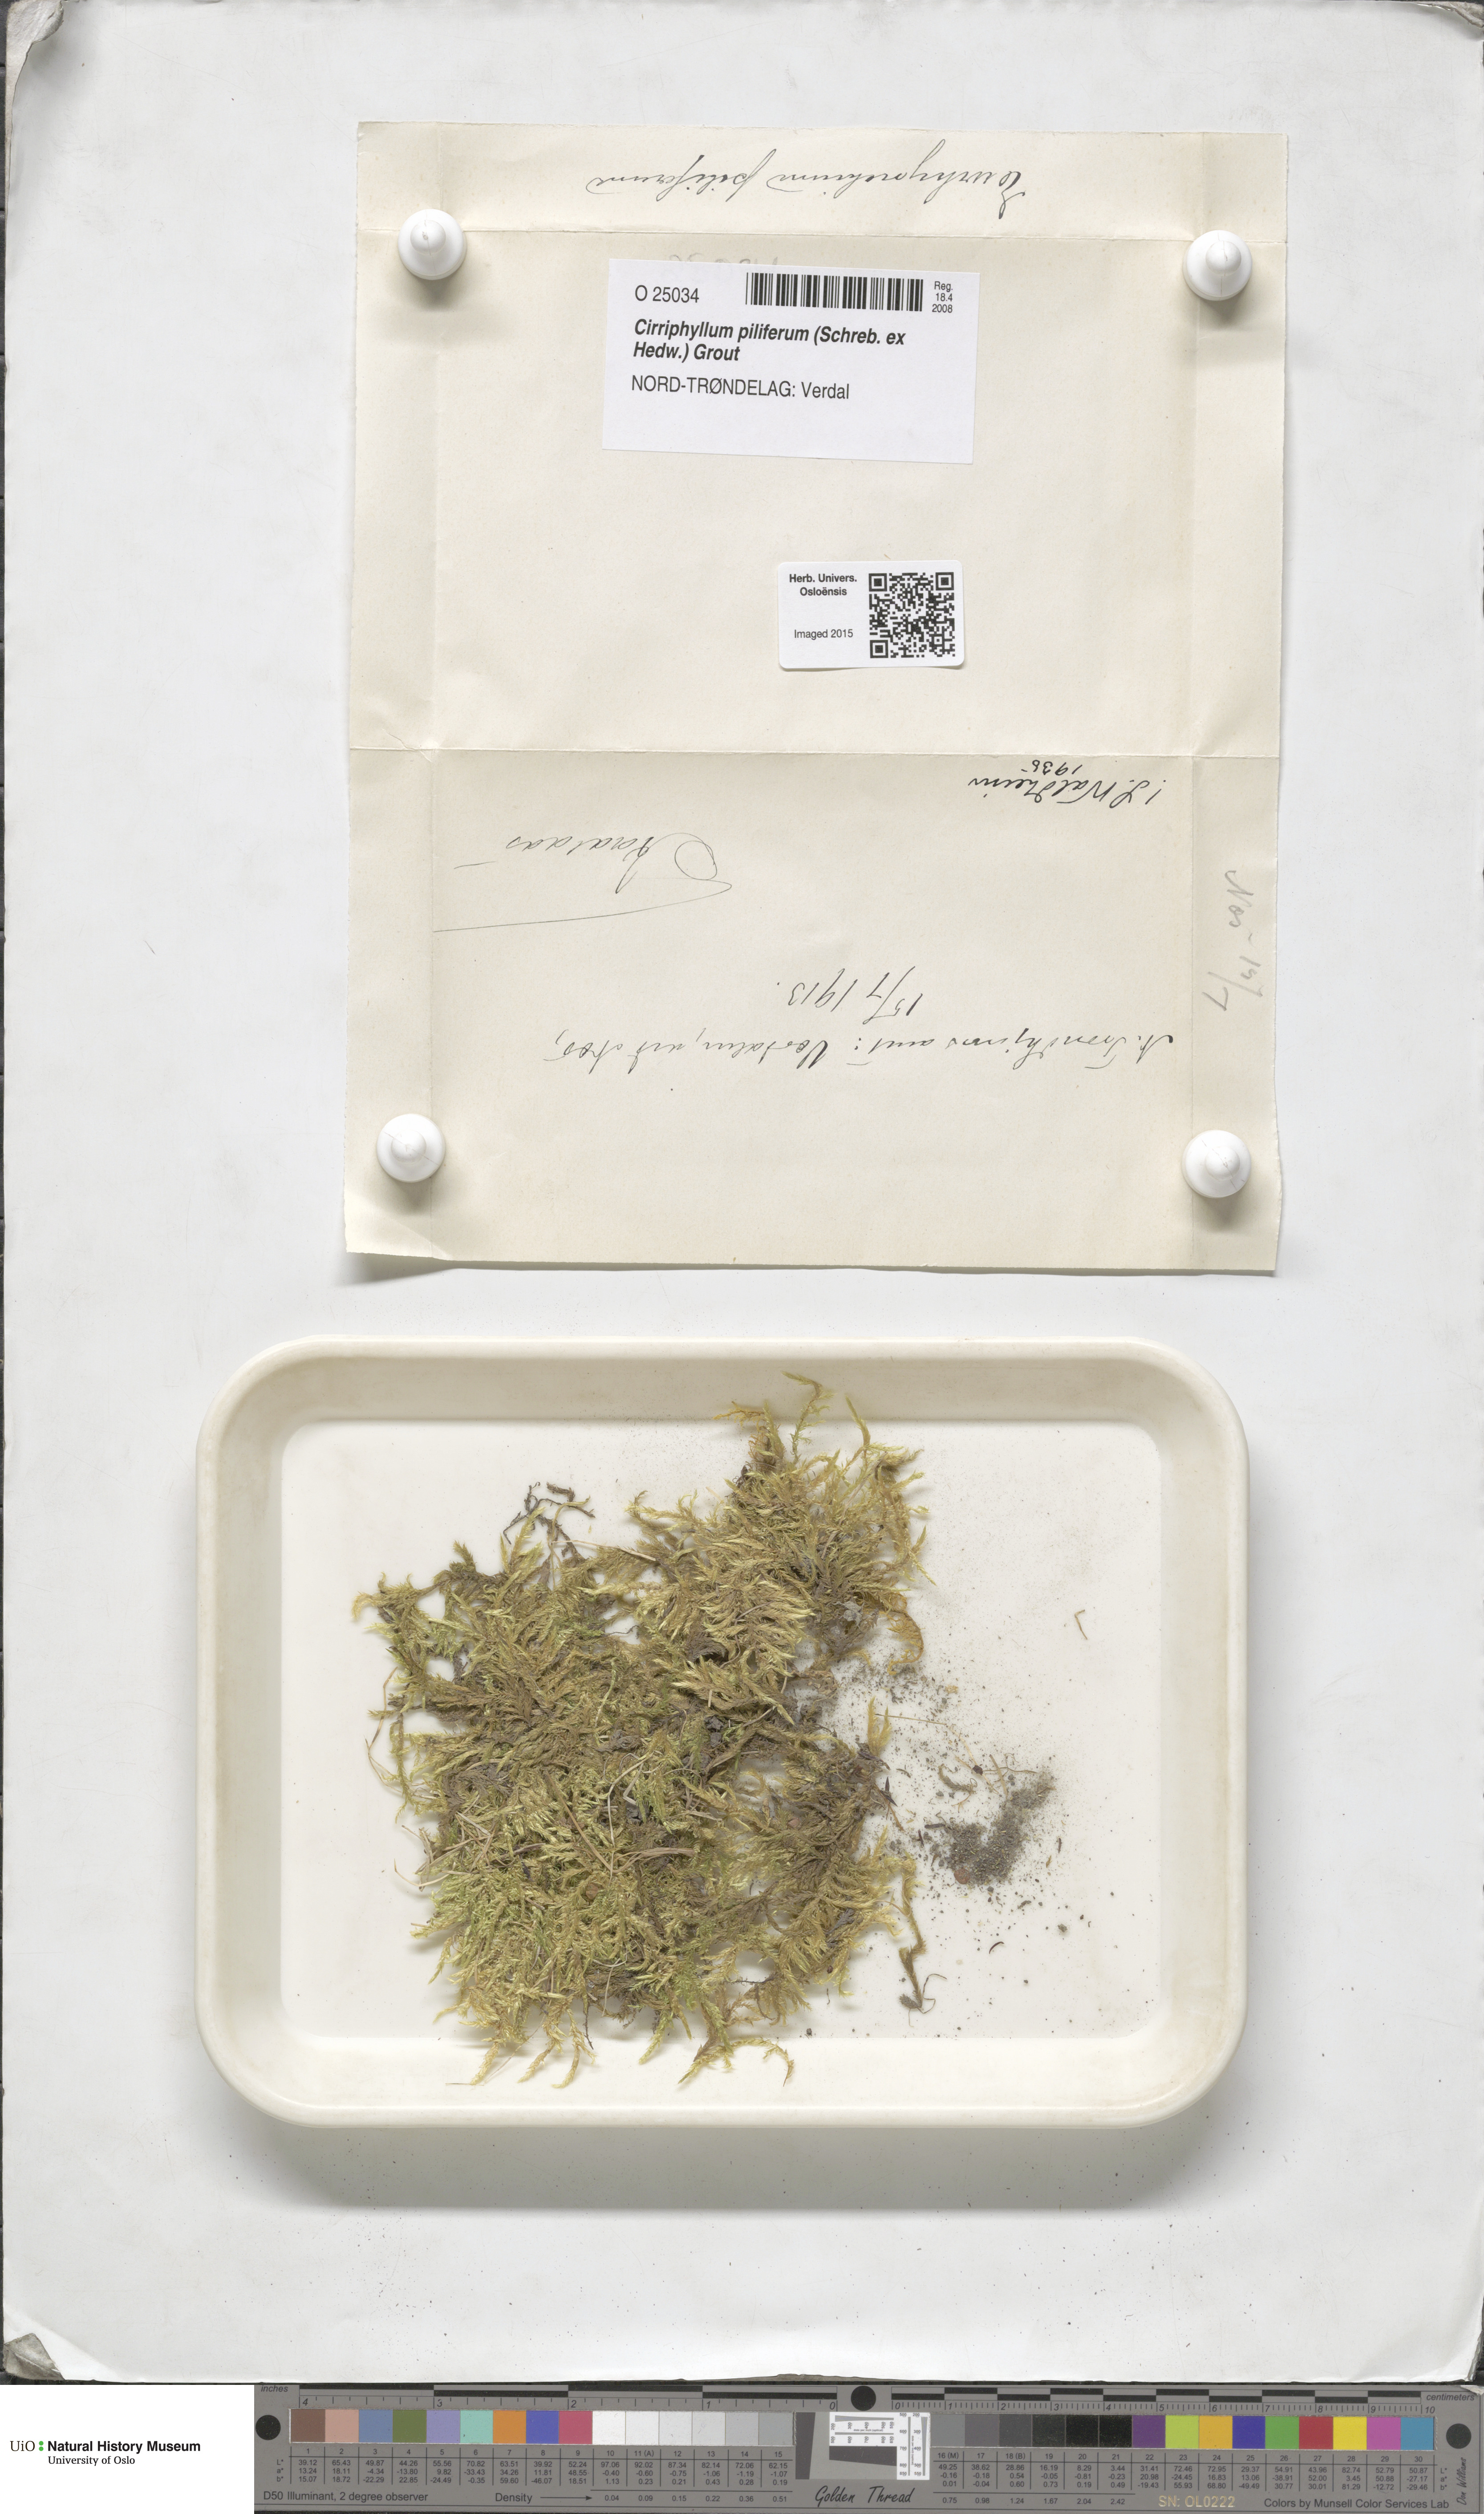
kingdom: Plantae
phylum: Bryophyta
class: Bryopsida
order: Hypnales
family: Brachytheciaceae
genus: Cirriphyllum
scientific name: Cirriphyllum piliferum
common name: Hair-pointed moss
